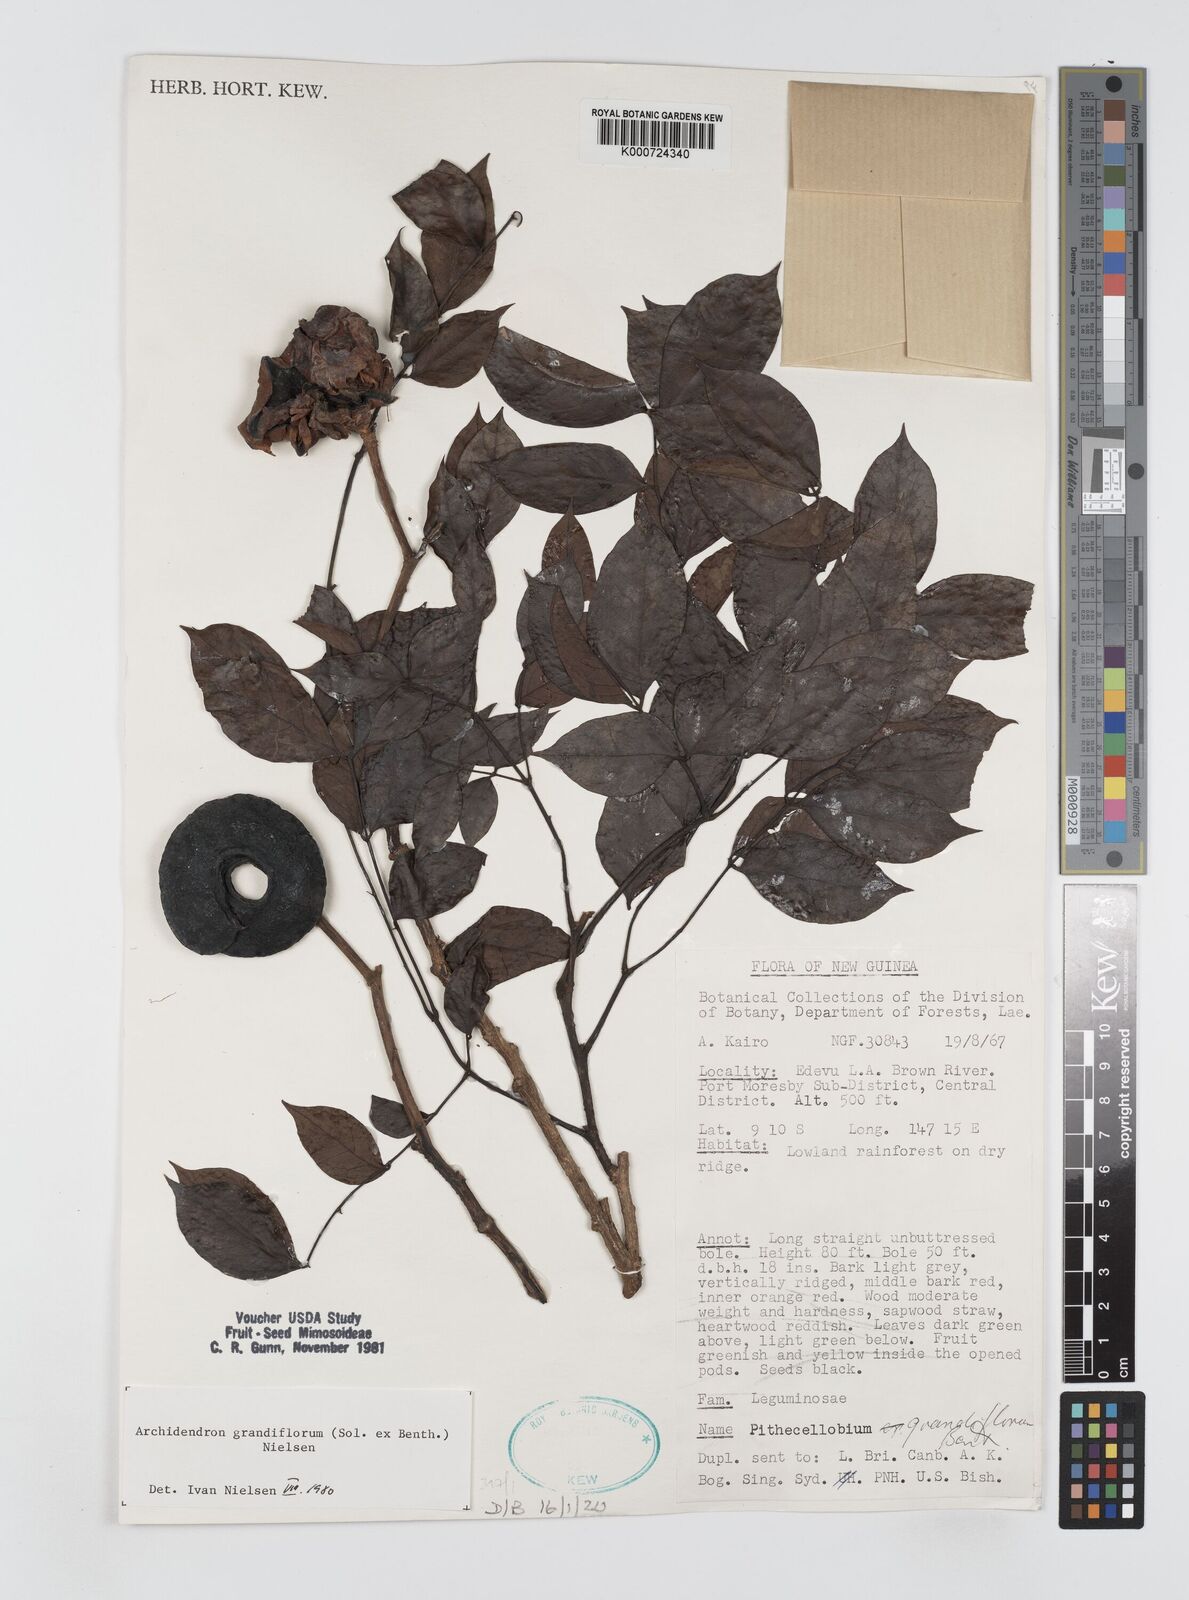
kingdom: Plantae
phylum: Tracheophyta
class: Magnoliopsida
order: Fabales
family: Fabaceae
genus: Archidendron
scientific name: Archidendron grandiflorum
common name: Tulip siris
